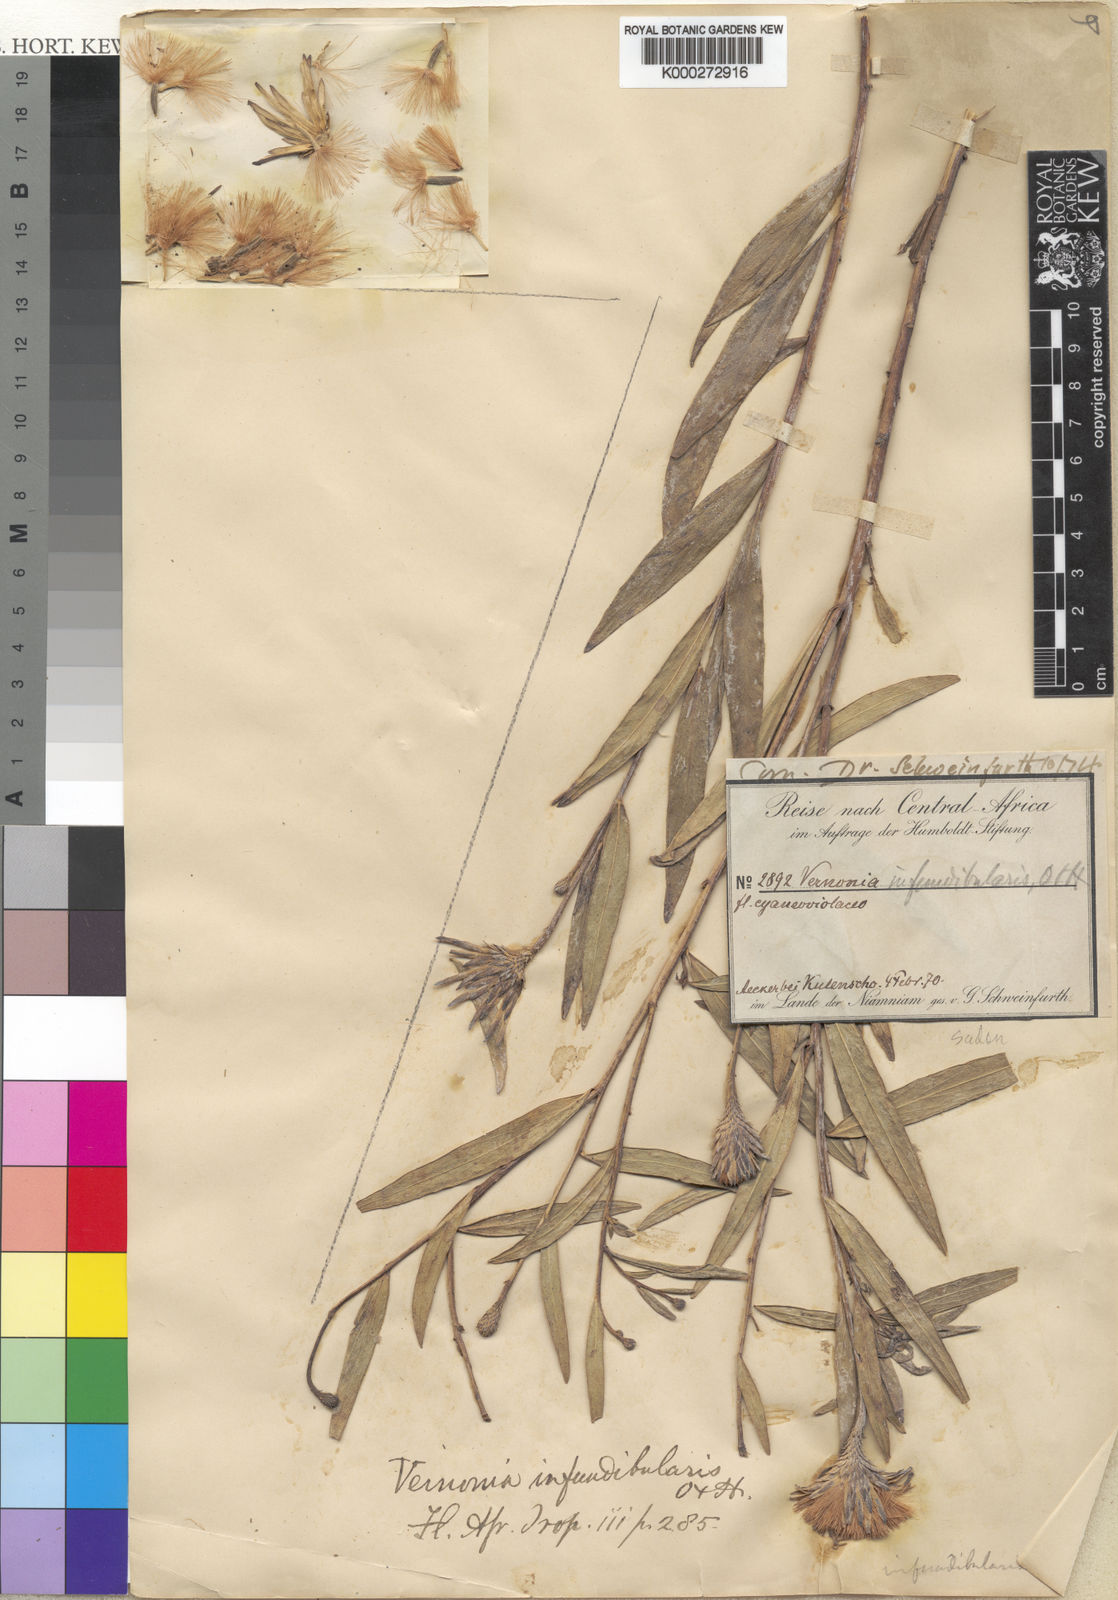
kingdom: Plantae
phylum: Tracheophyta
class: Magnoliopsida
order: Asterales
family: Asteraceae
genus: Linzia
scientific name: Linzia infundibularis
